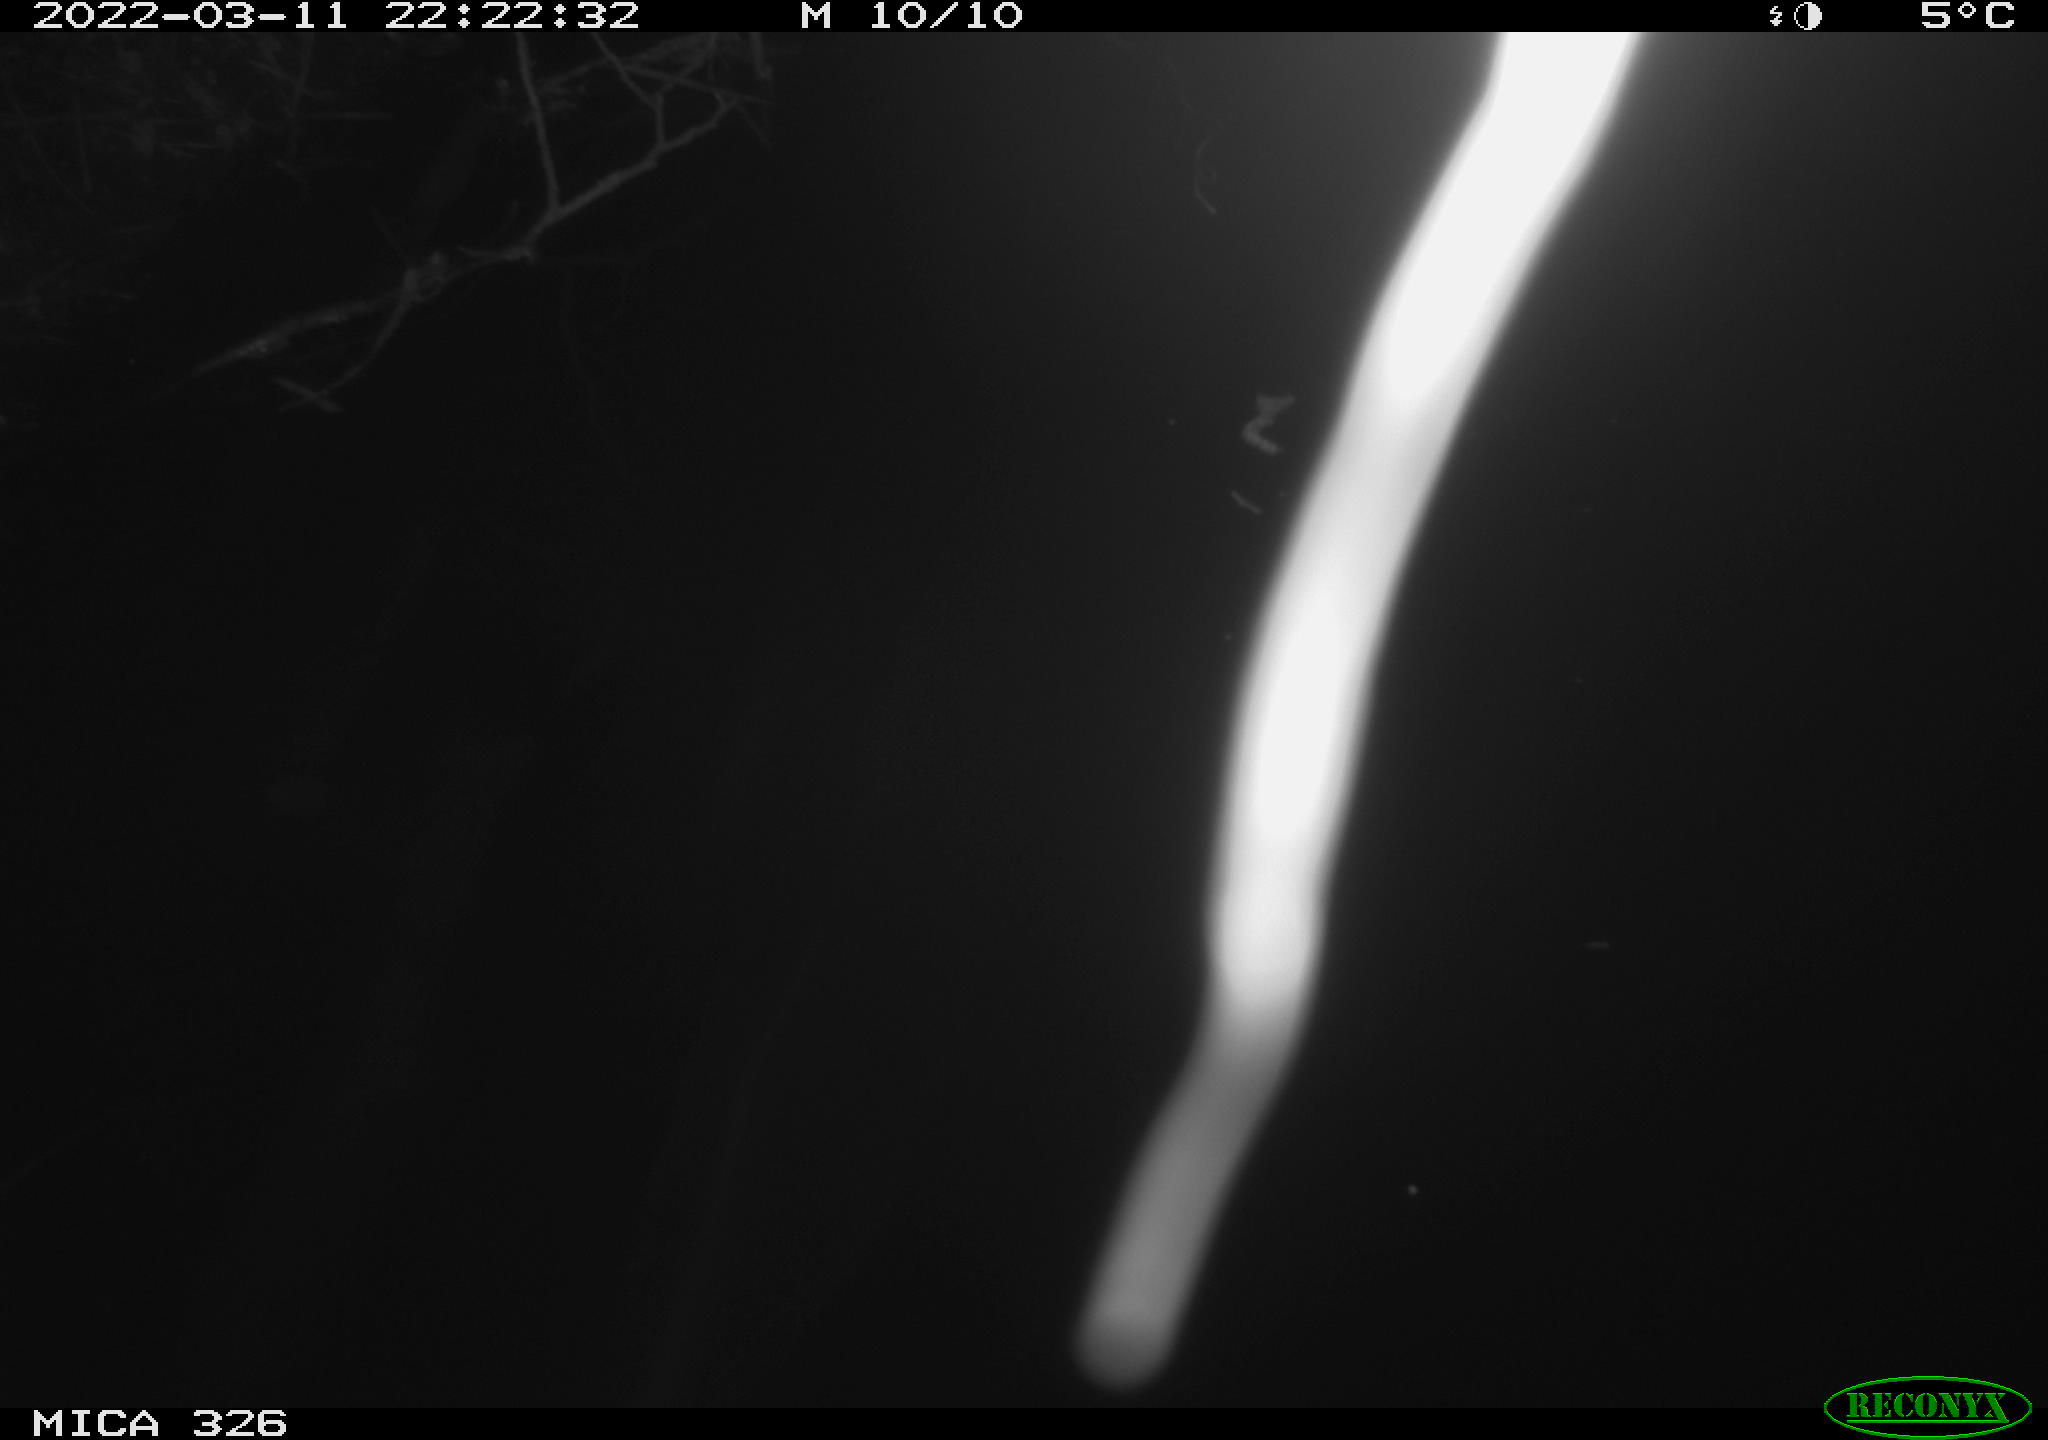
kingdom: Animalia
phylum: Chordata
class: Mammalia
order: Rodentia
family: Cricetidae
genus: Ondatra
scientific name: Ondatra zibethicus
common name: Muskrat
